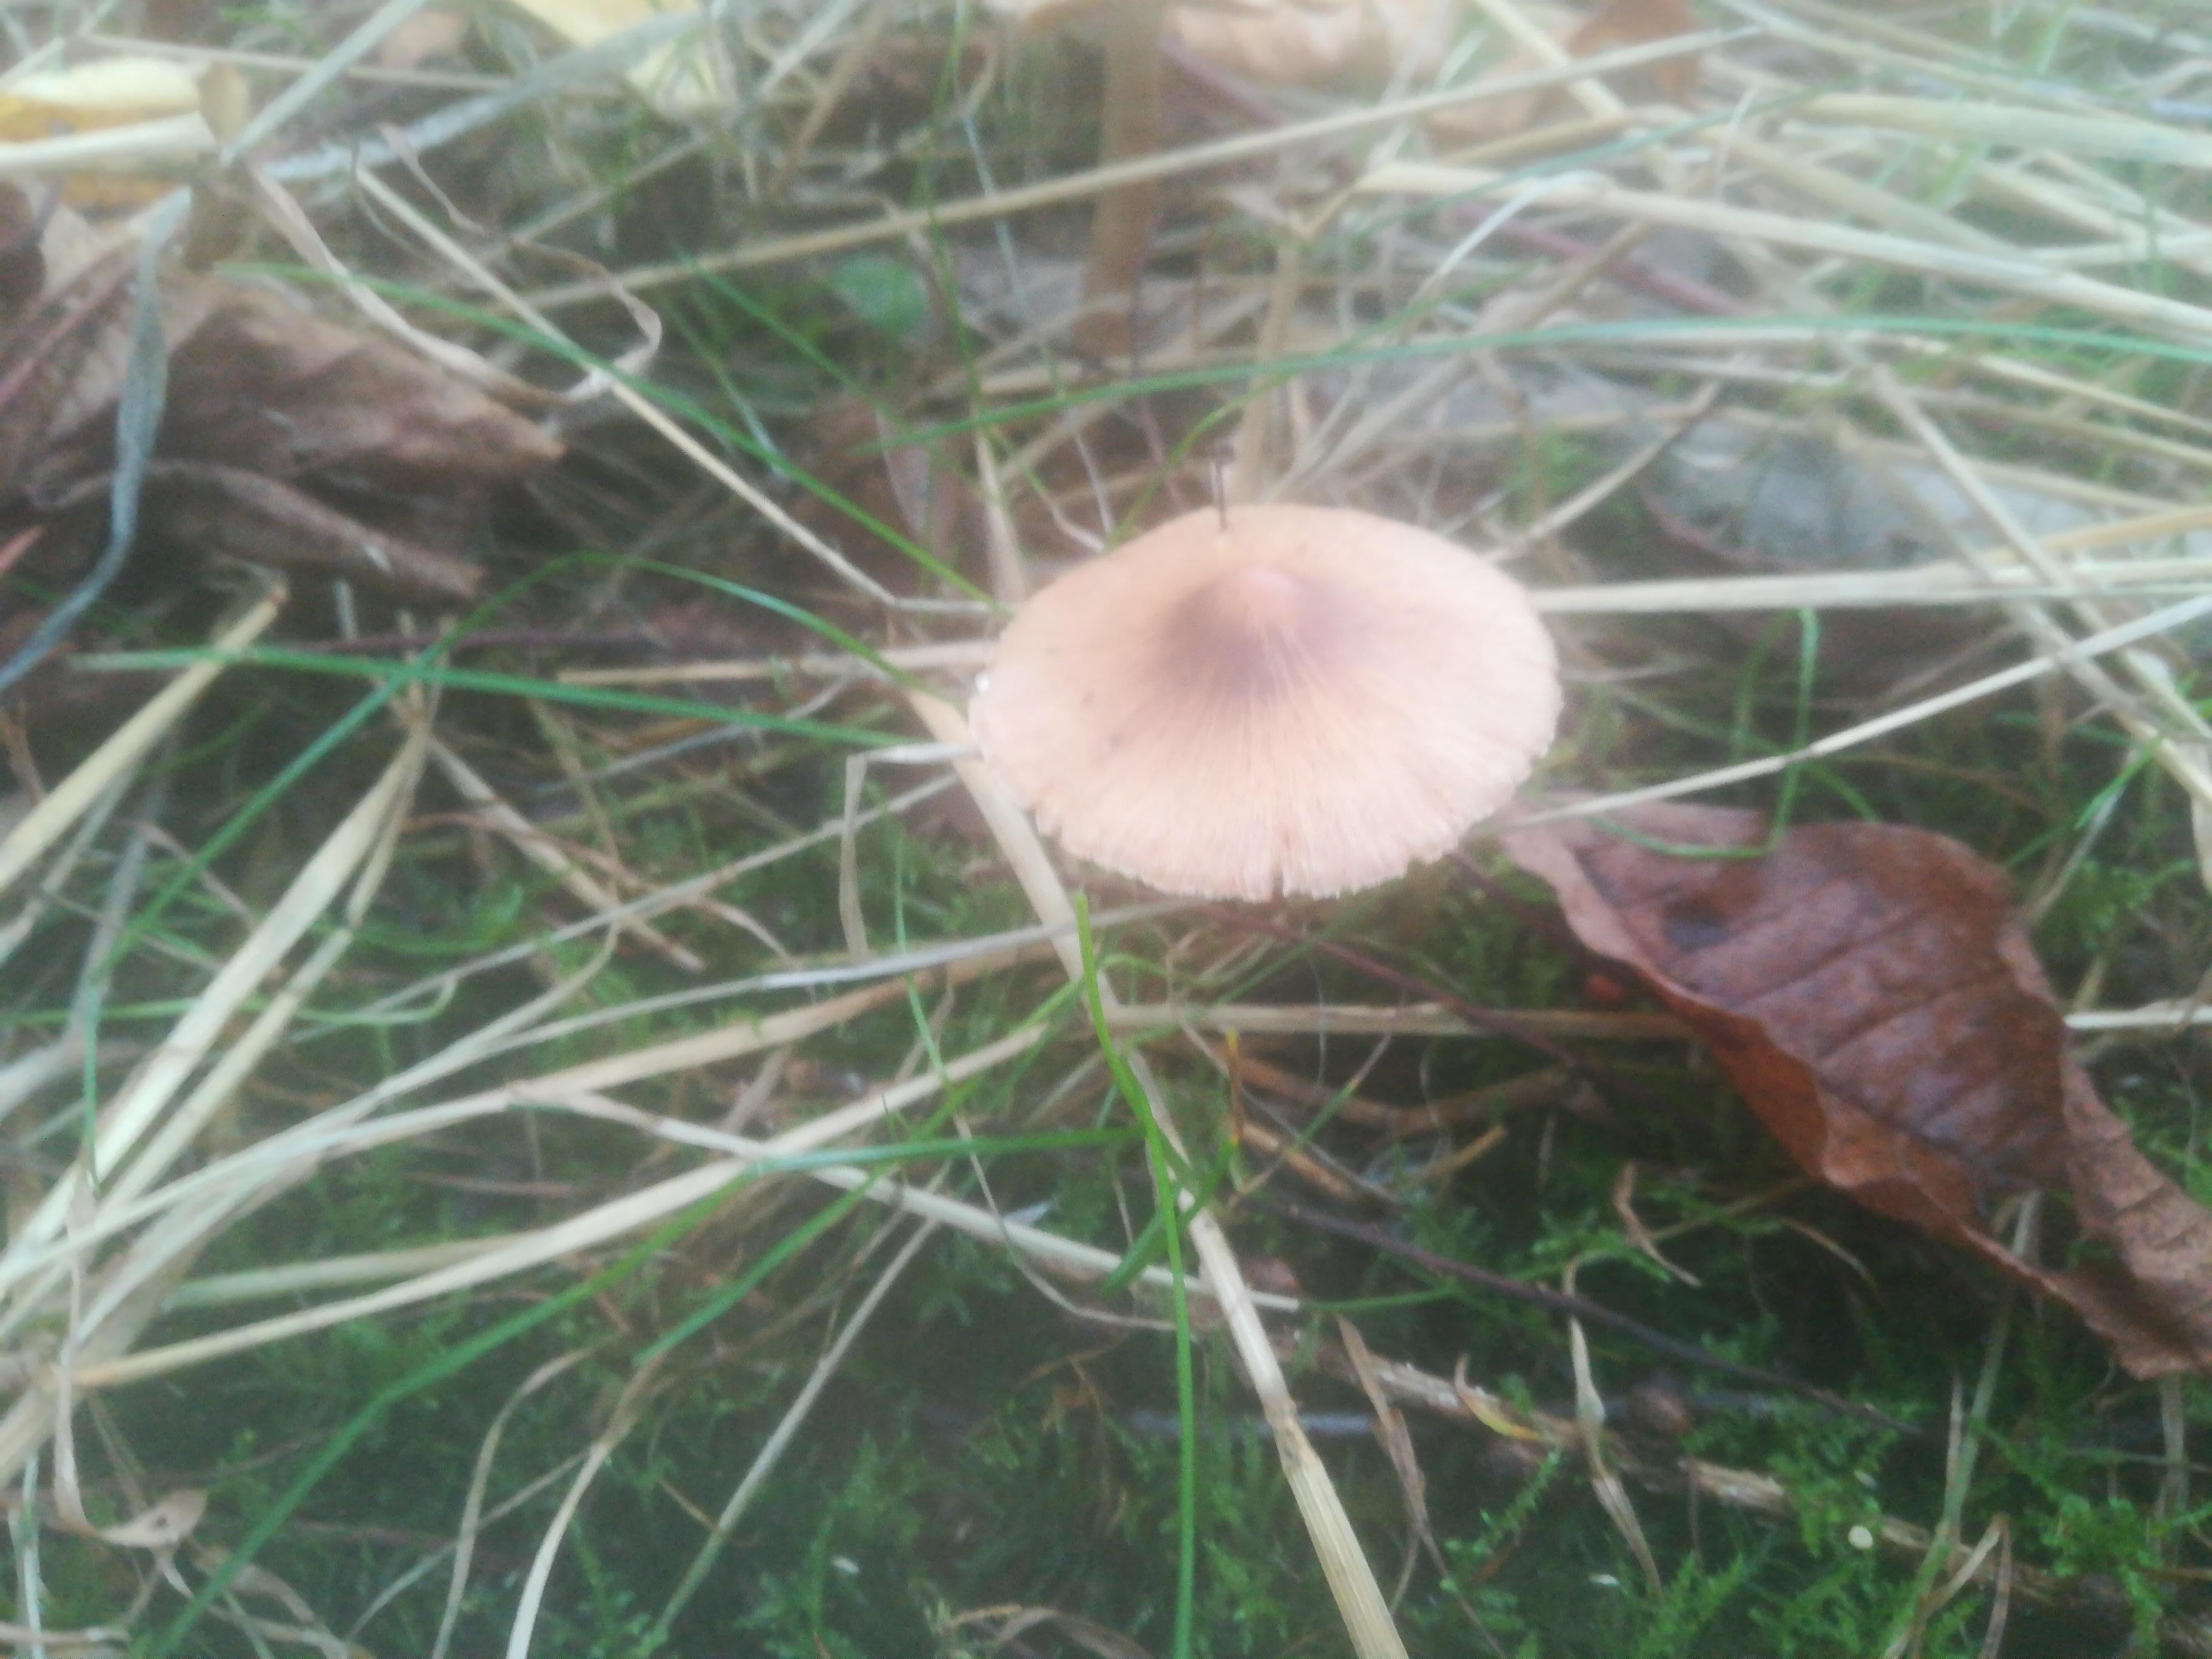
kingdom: Fungi
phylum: Basidiomycota
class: Agaricomycetes
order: Agaricales
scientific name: Agaricales
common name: champignonordenen
